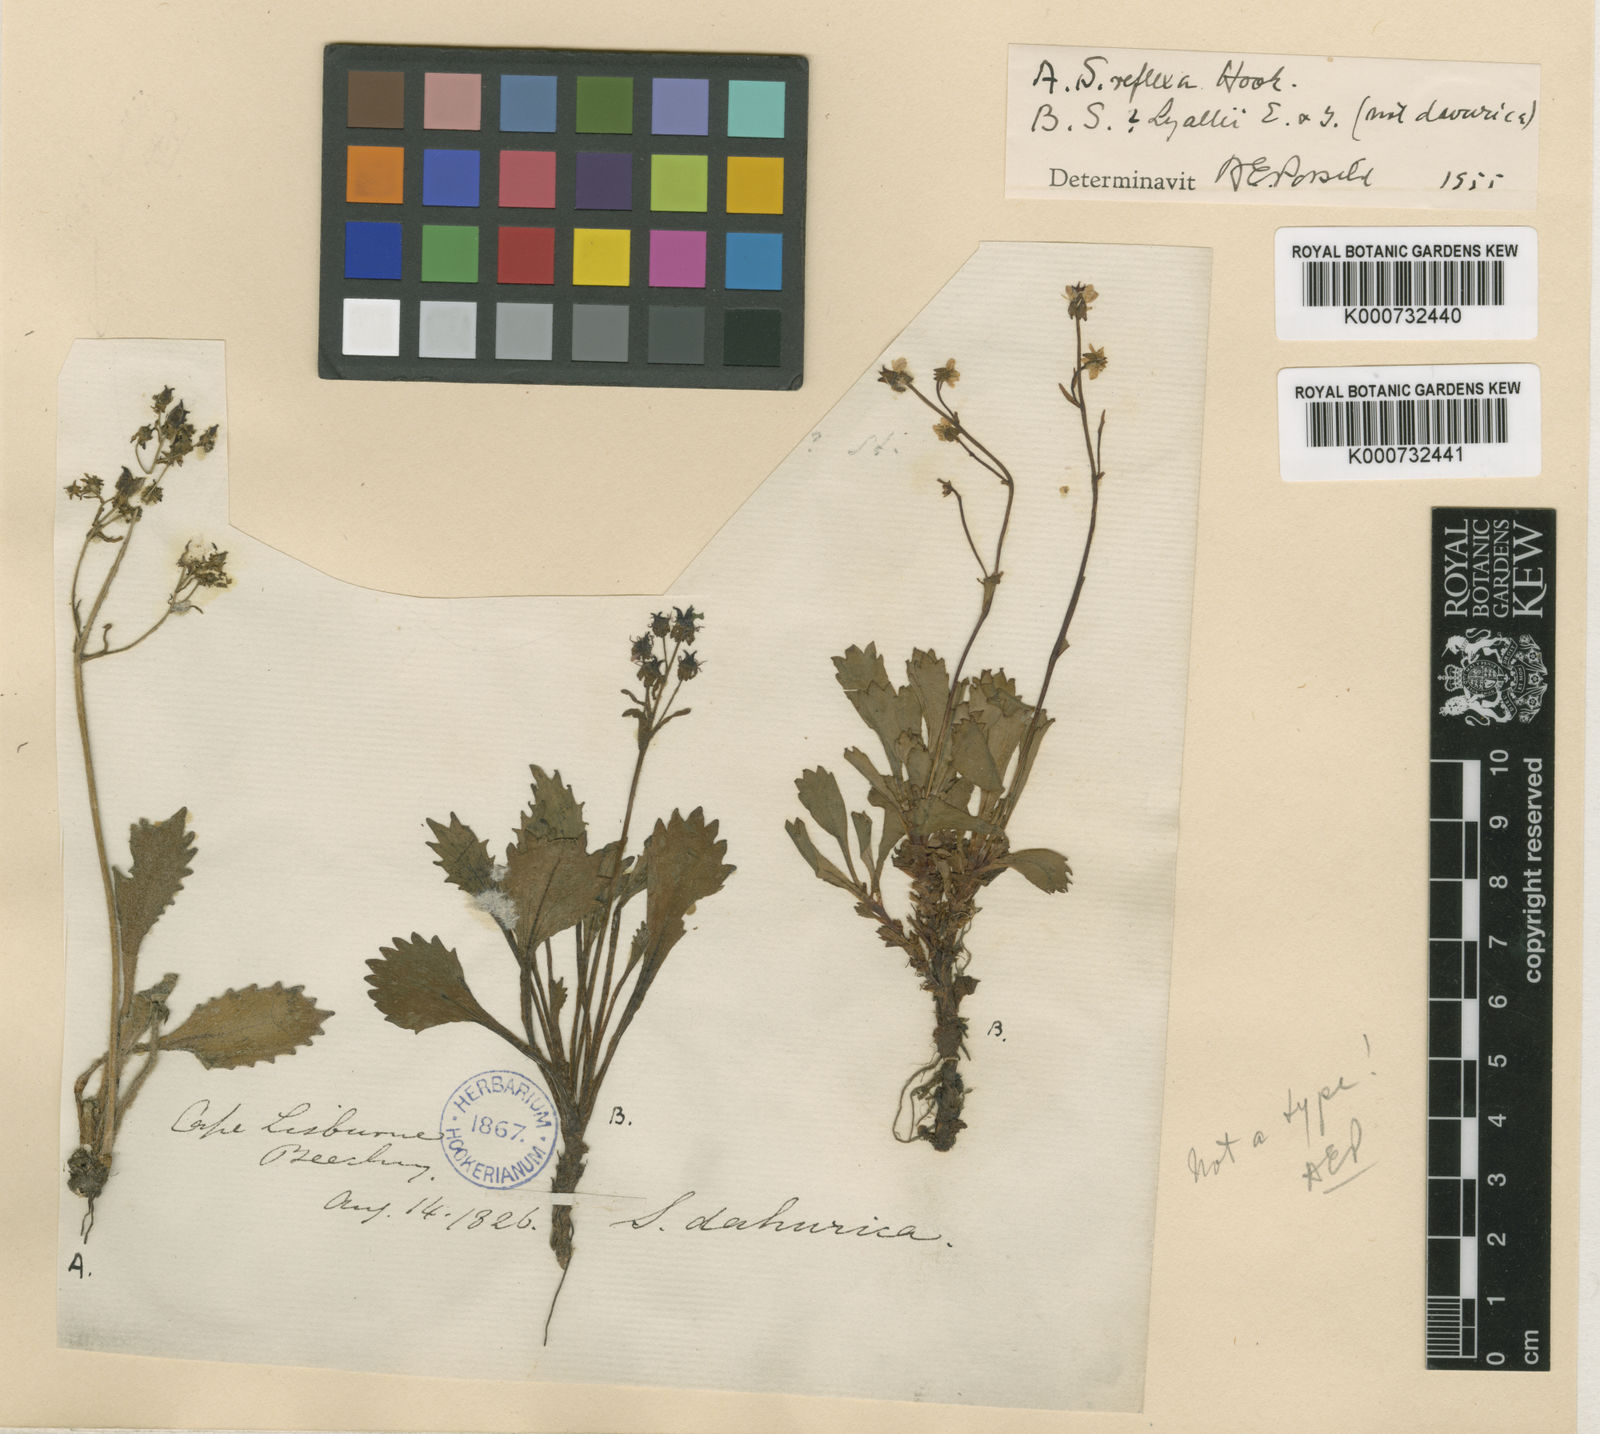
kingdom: Plantae
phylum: Tracheophyta
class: Magnoliopsida
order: Saxifragales
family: Saxifragaceae
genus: Saxifraga
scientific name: Saxifraga
